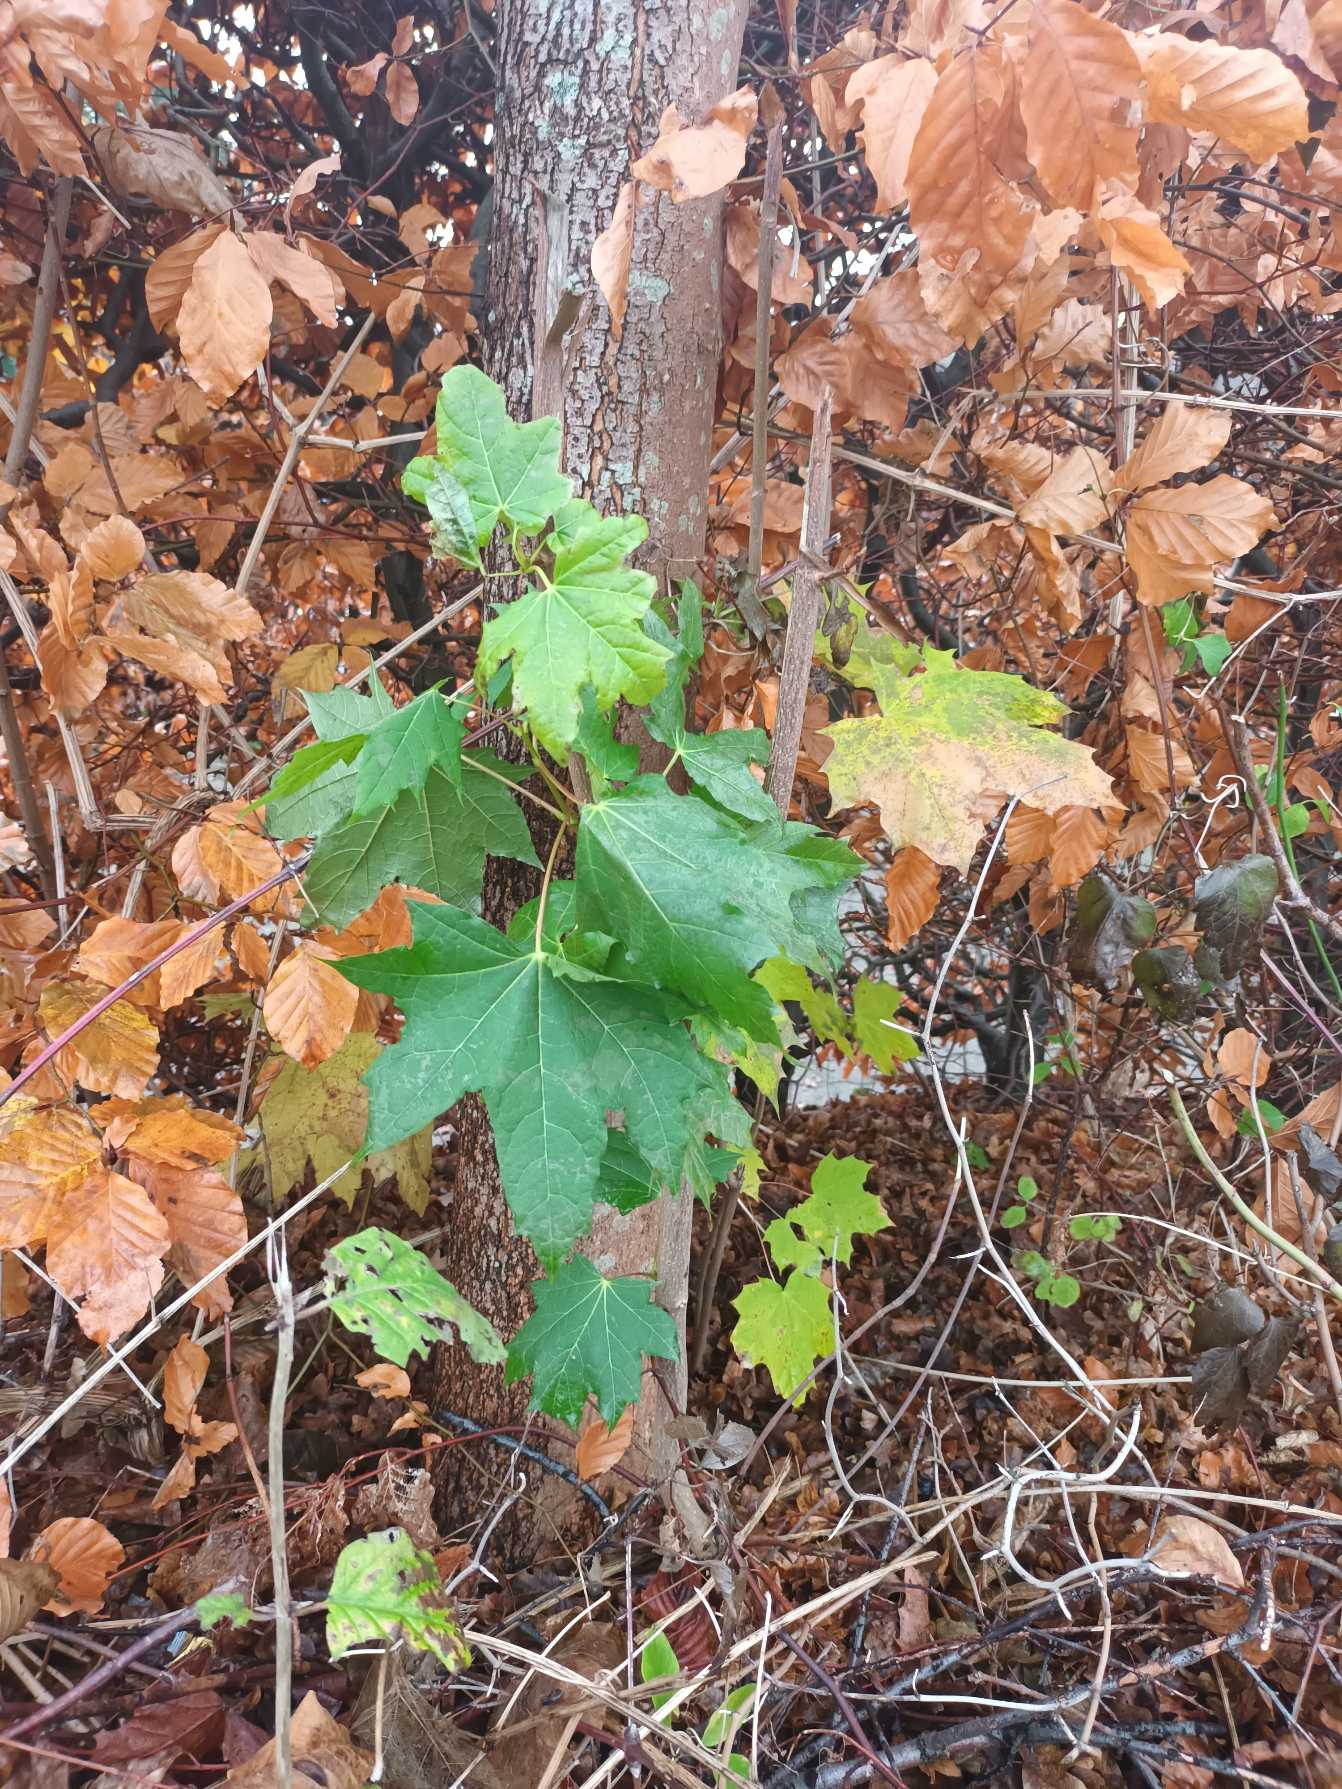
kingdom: Plantae
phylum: Tracheophyta
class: Magnoliopsida
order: Sapindales
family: Sapindaceae
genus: Acer
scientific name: Acer platanoides
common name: Spids-løn
